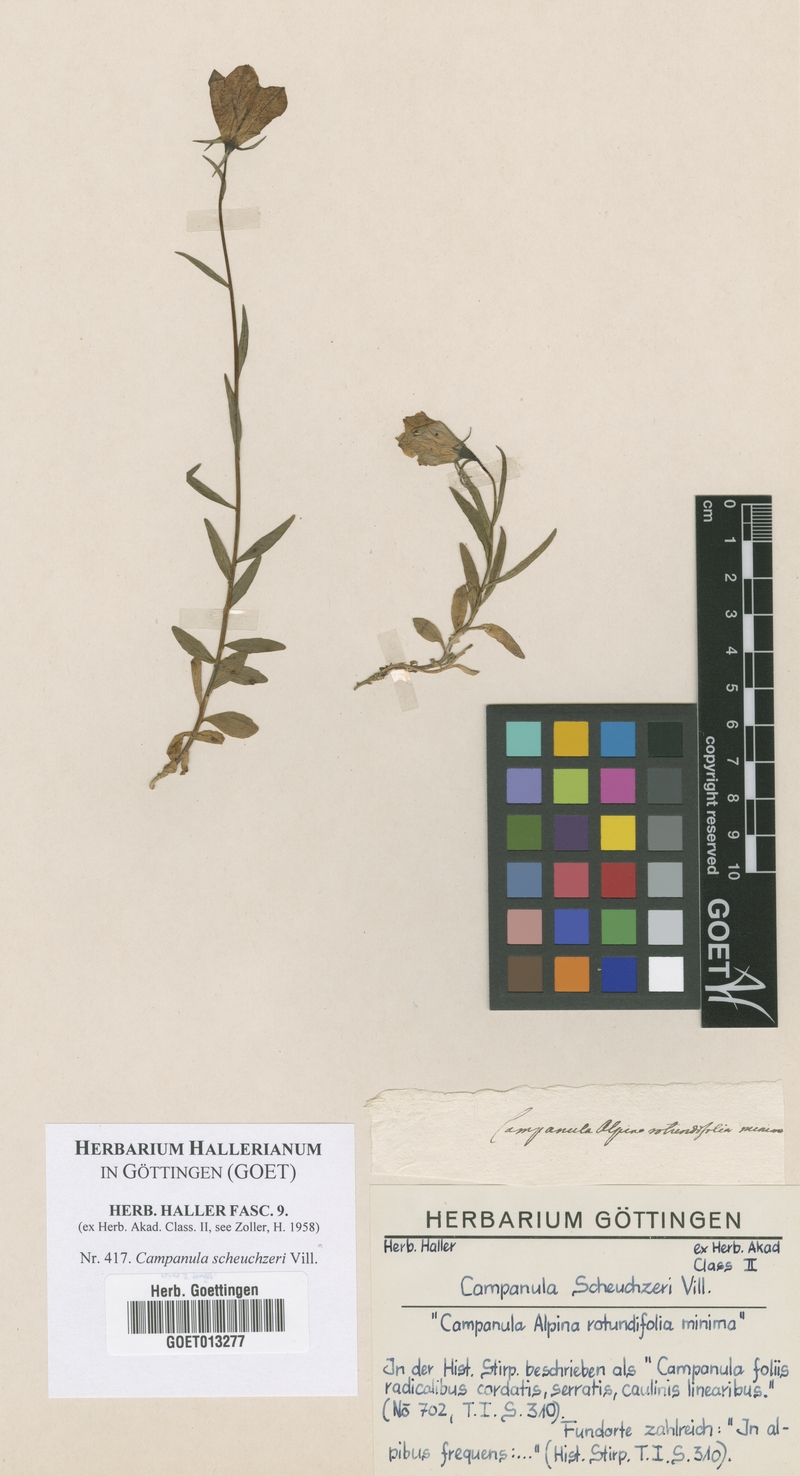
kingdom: Plantae
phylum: Tracheophyta
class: Magnoliopsida
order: Asterales
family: Campanulaceae
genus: Campanula
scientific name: Campanula scheuchzeri
